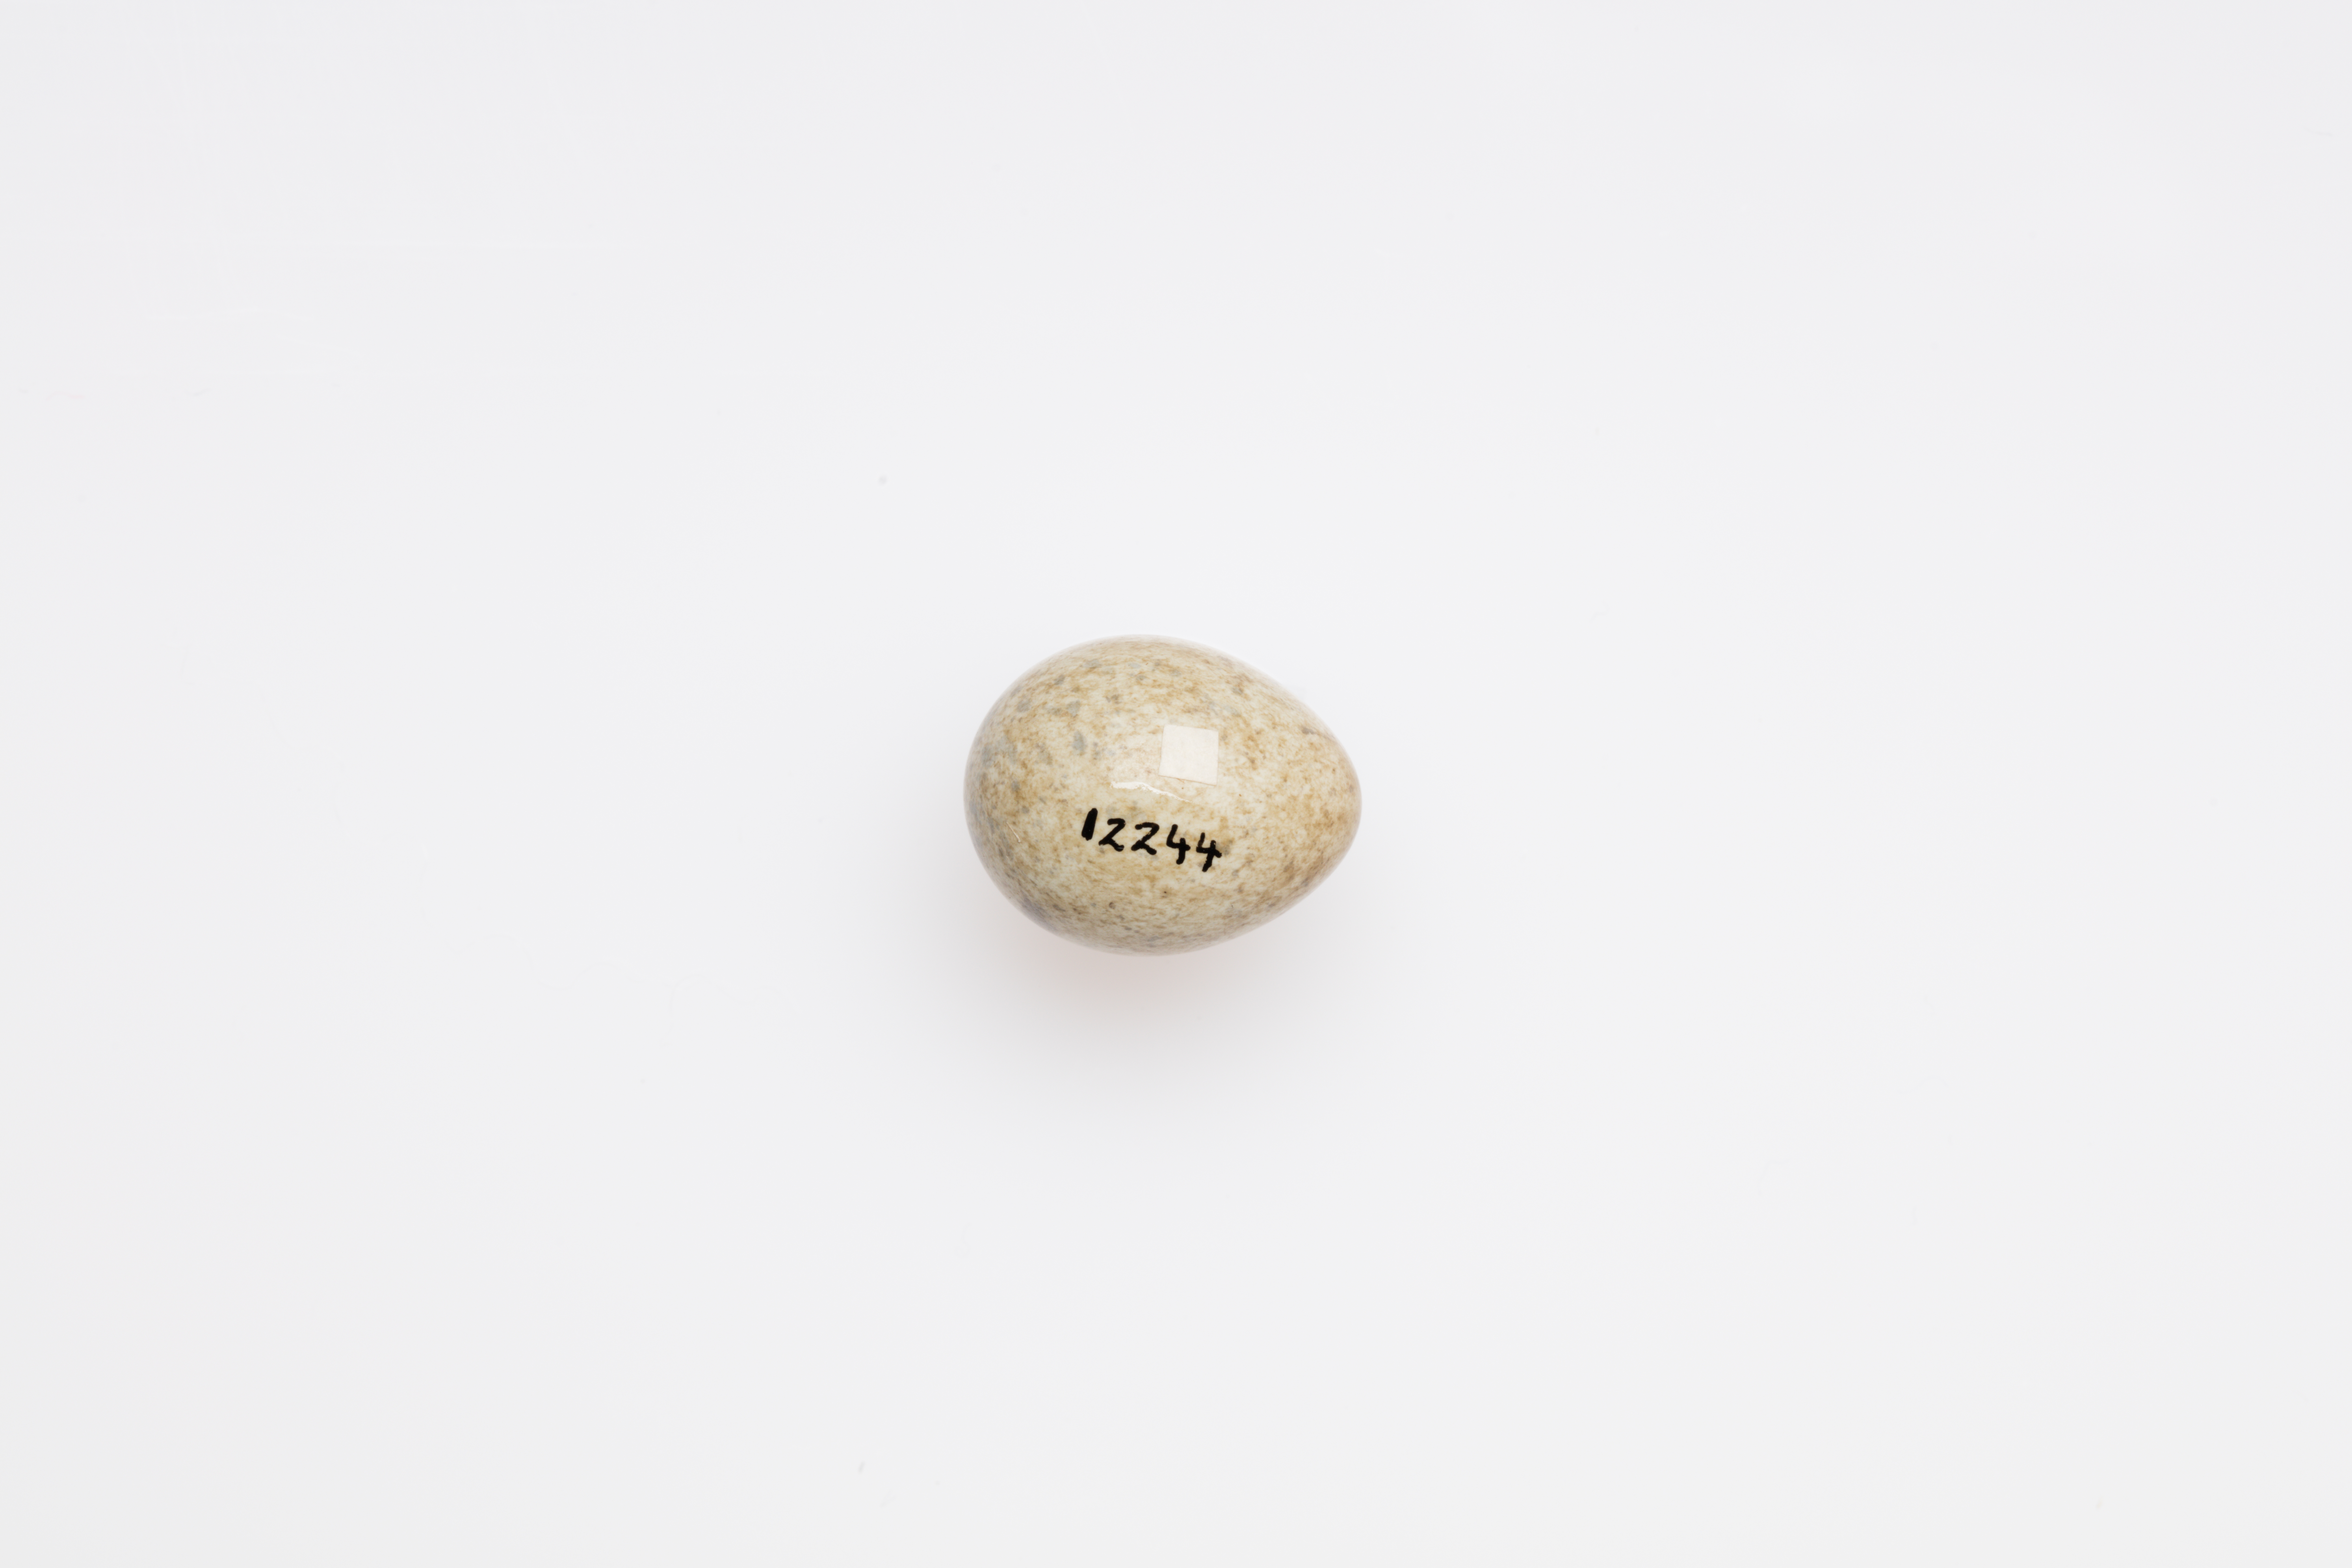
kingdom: Animalia
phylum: Chordata
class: Aves
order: Passeriformes
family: Sylviidae
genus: Sylvia
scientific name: Sylvia communis
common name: Common whitethroat
